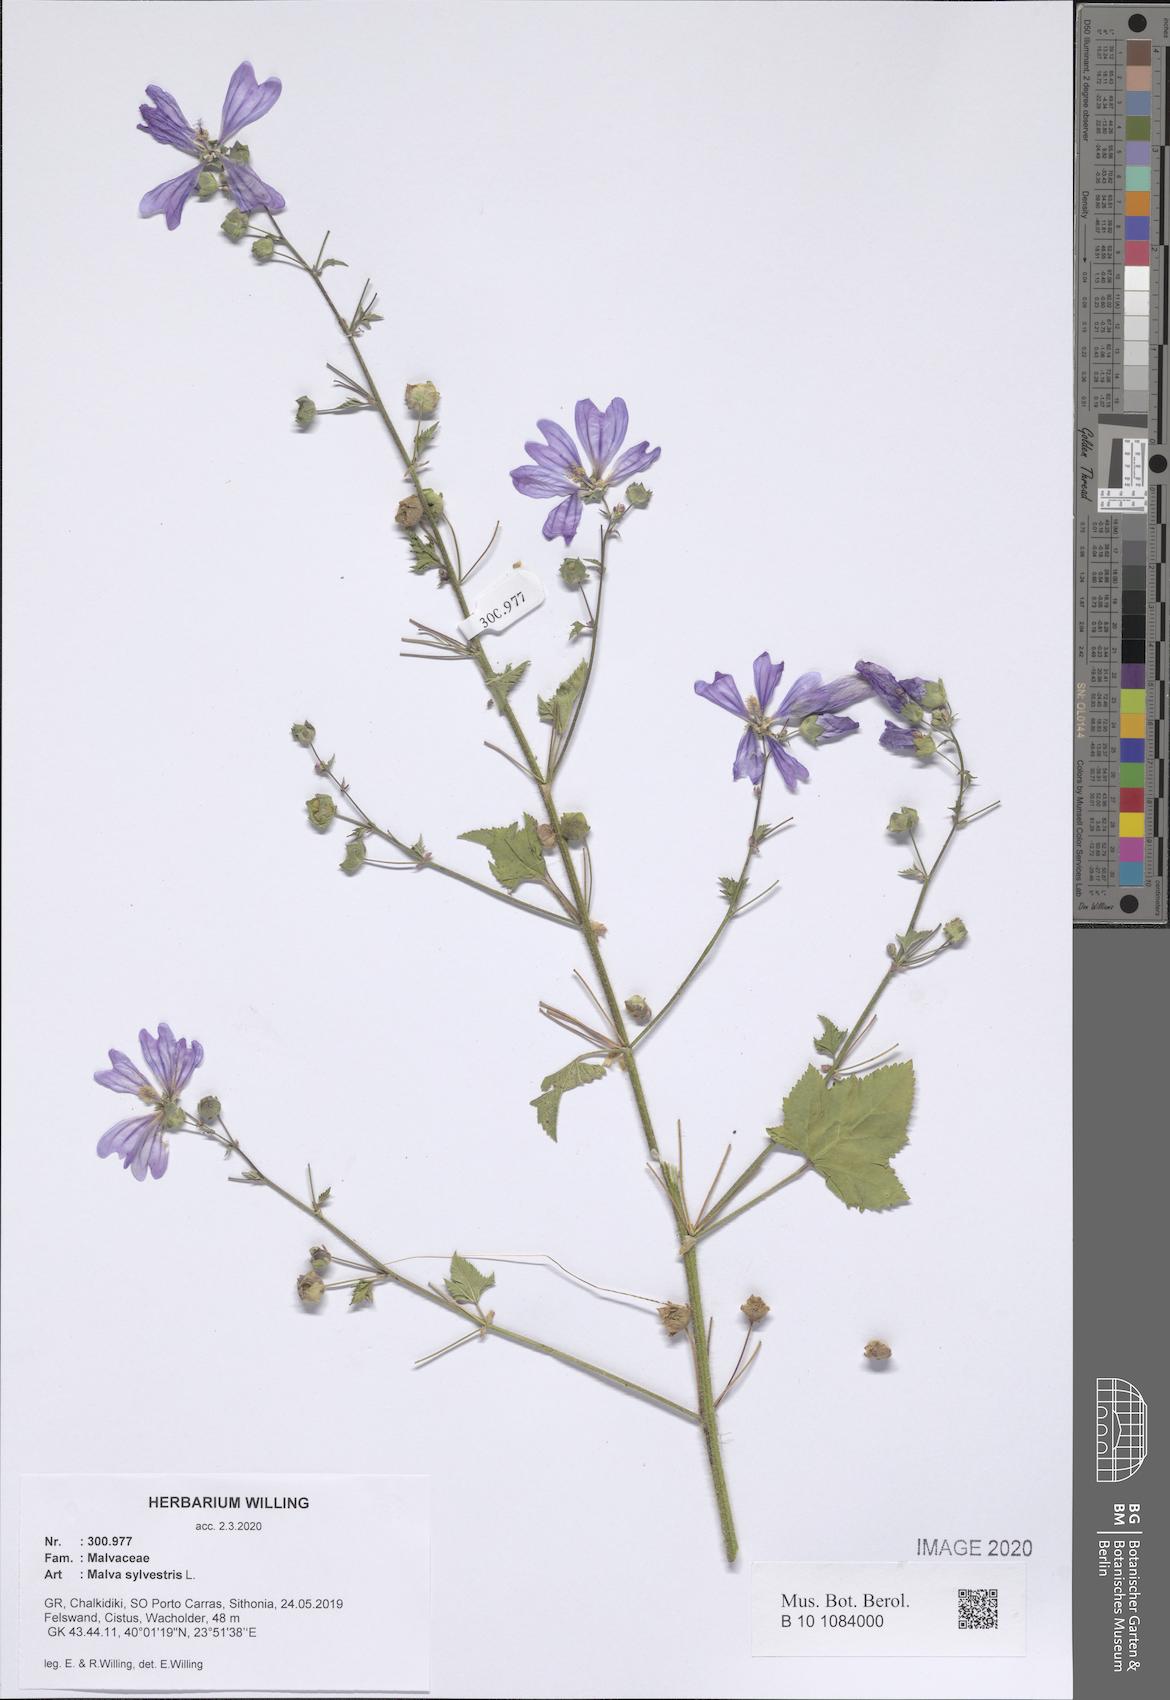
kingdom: Plantae
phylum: Tracheophyta
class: Magnoliopsida
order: Malvales
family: Malvaceae
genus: Malva
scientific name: Malva sylvestris
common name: Common mallow
